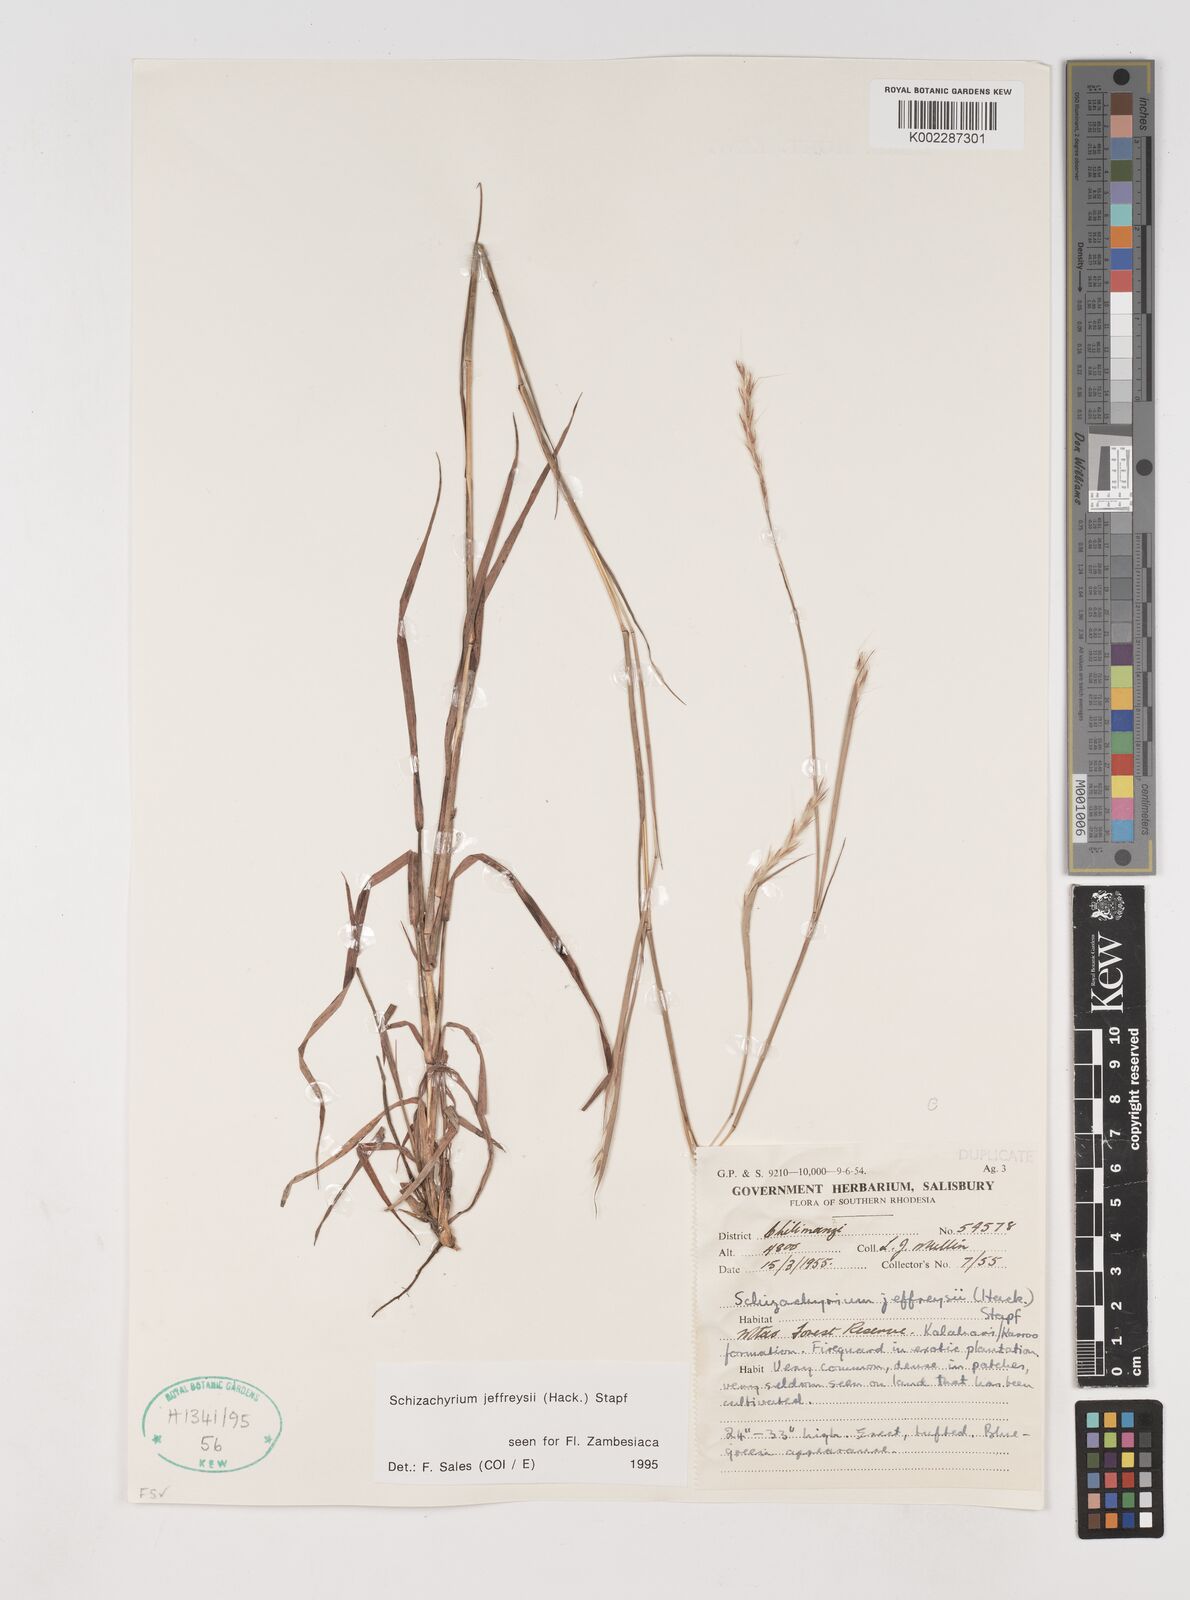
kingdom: Plantae
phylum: Tracheophyta
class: Liliopsida
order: Poales
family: Poaceae
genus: Schizachyrium
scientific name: Schizachyrium jeffreysii
